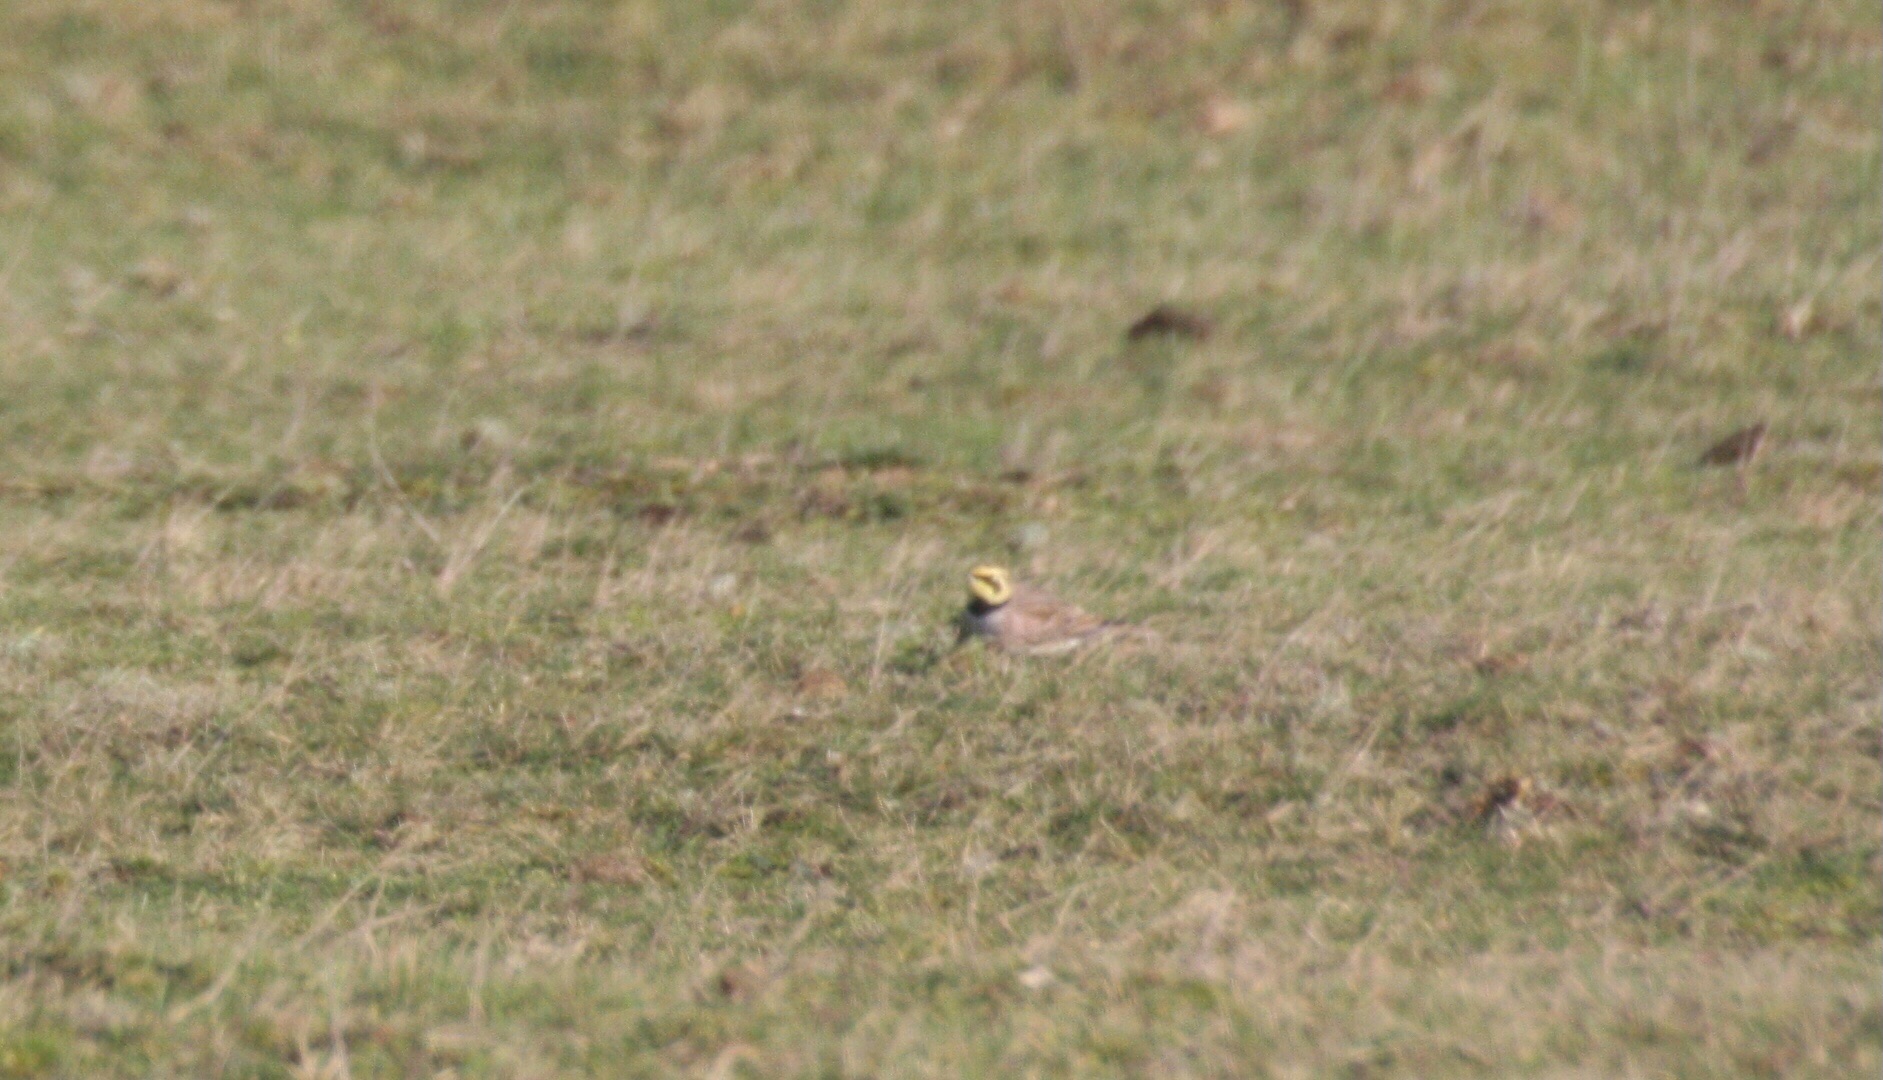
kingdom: Animalia
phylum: Chordata
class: Aves
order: Passeriformes
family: Alaudidae
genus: Eremophila
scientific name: Eremophila alpestris
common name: Bjerglærke
